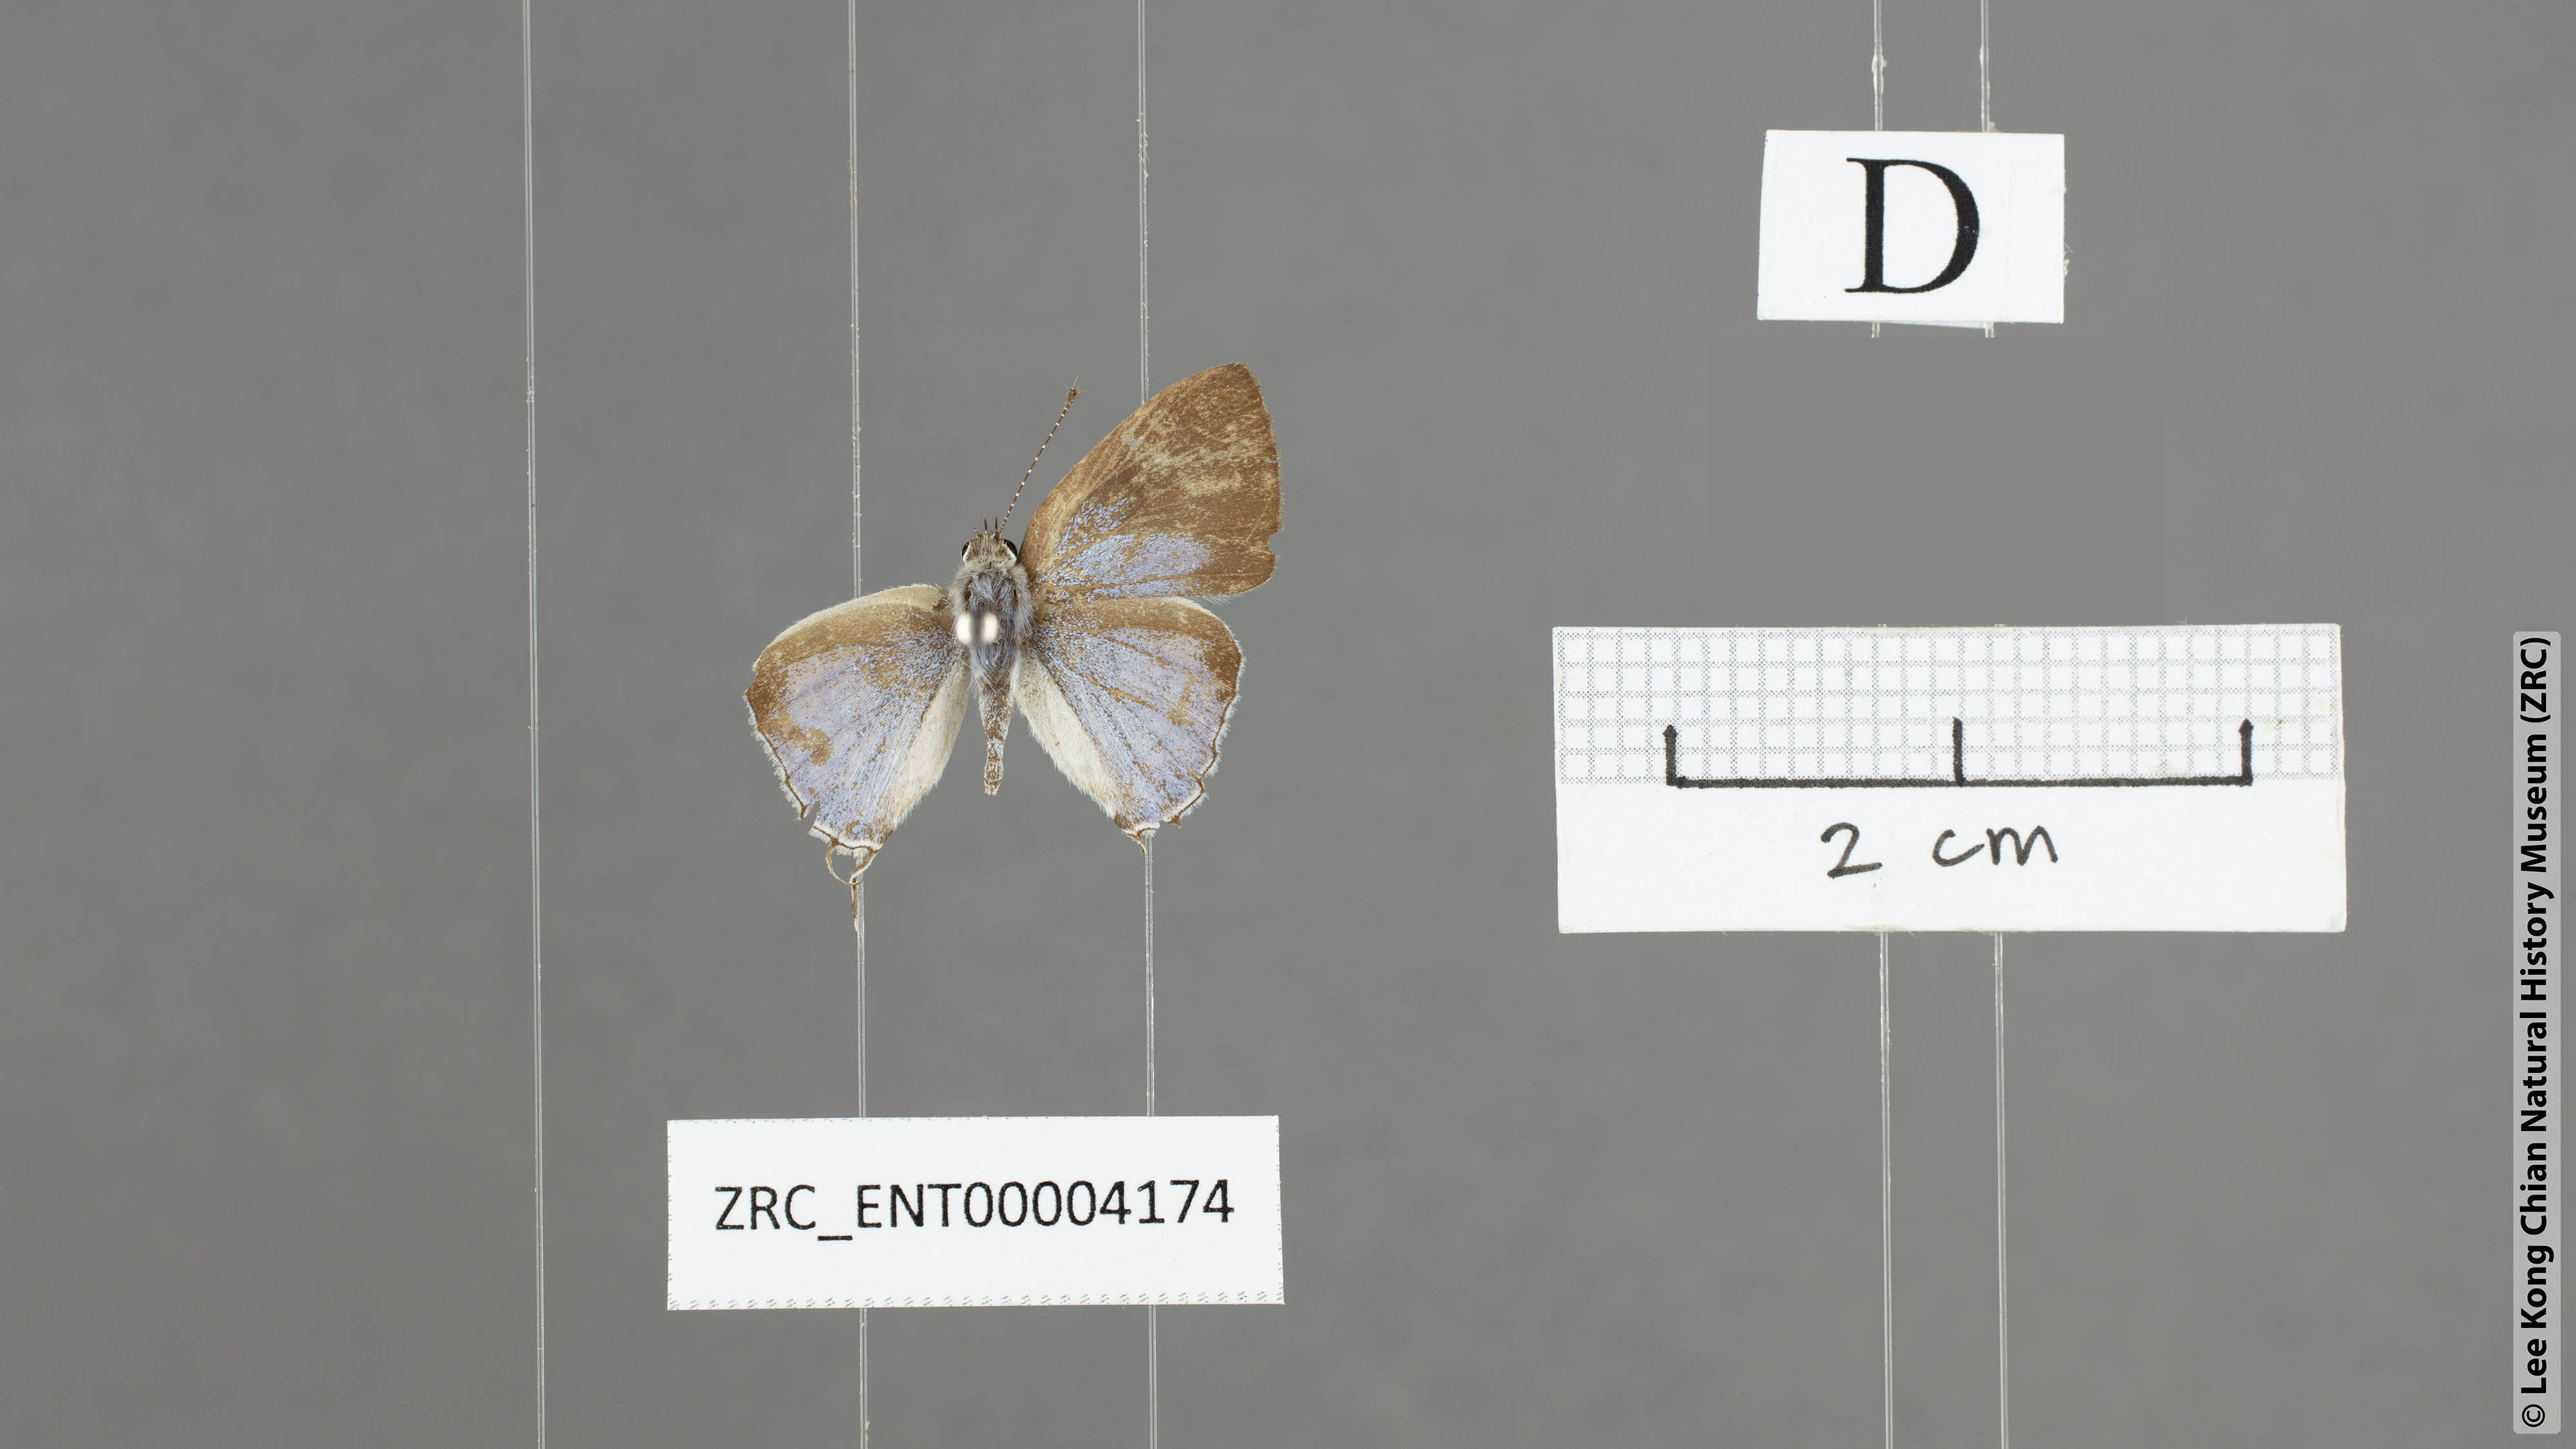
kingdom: Animalia
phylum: Arthropoda
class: Insecta
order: Lepidoptera
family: Lycaenidae
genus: Chliaria
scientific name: Chliaria othona
